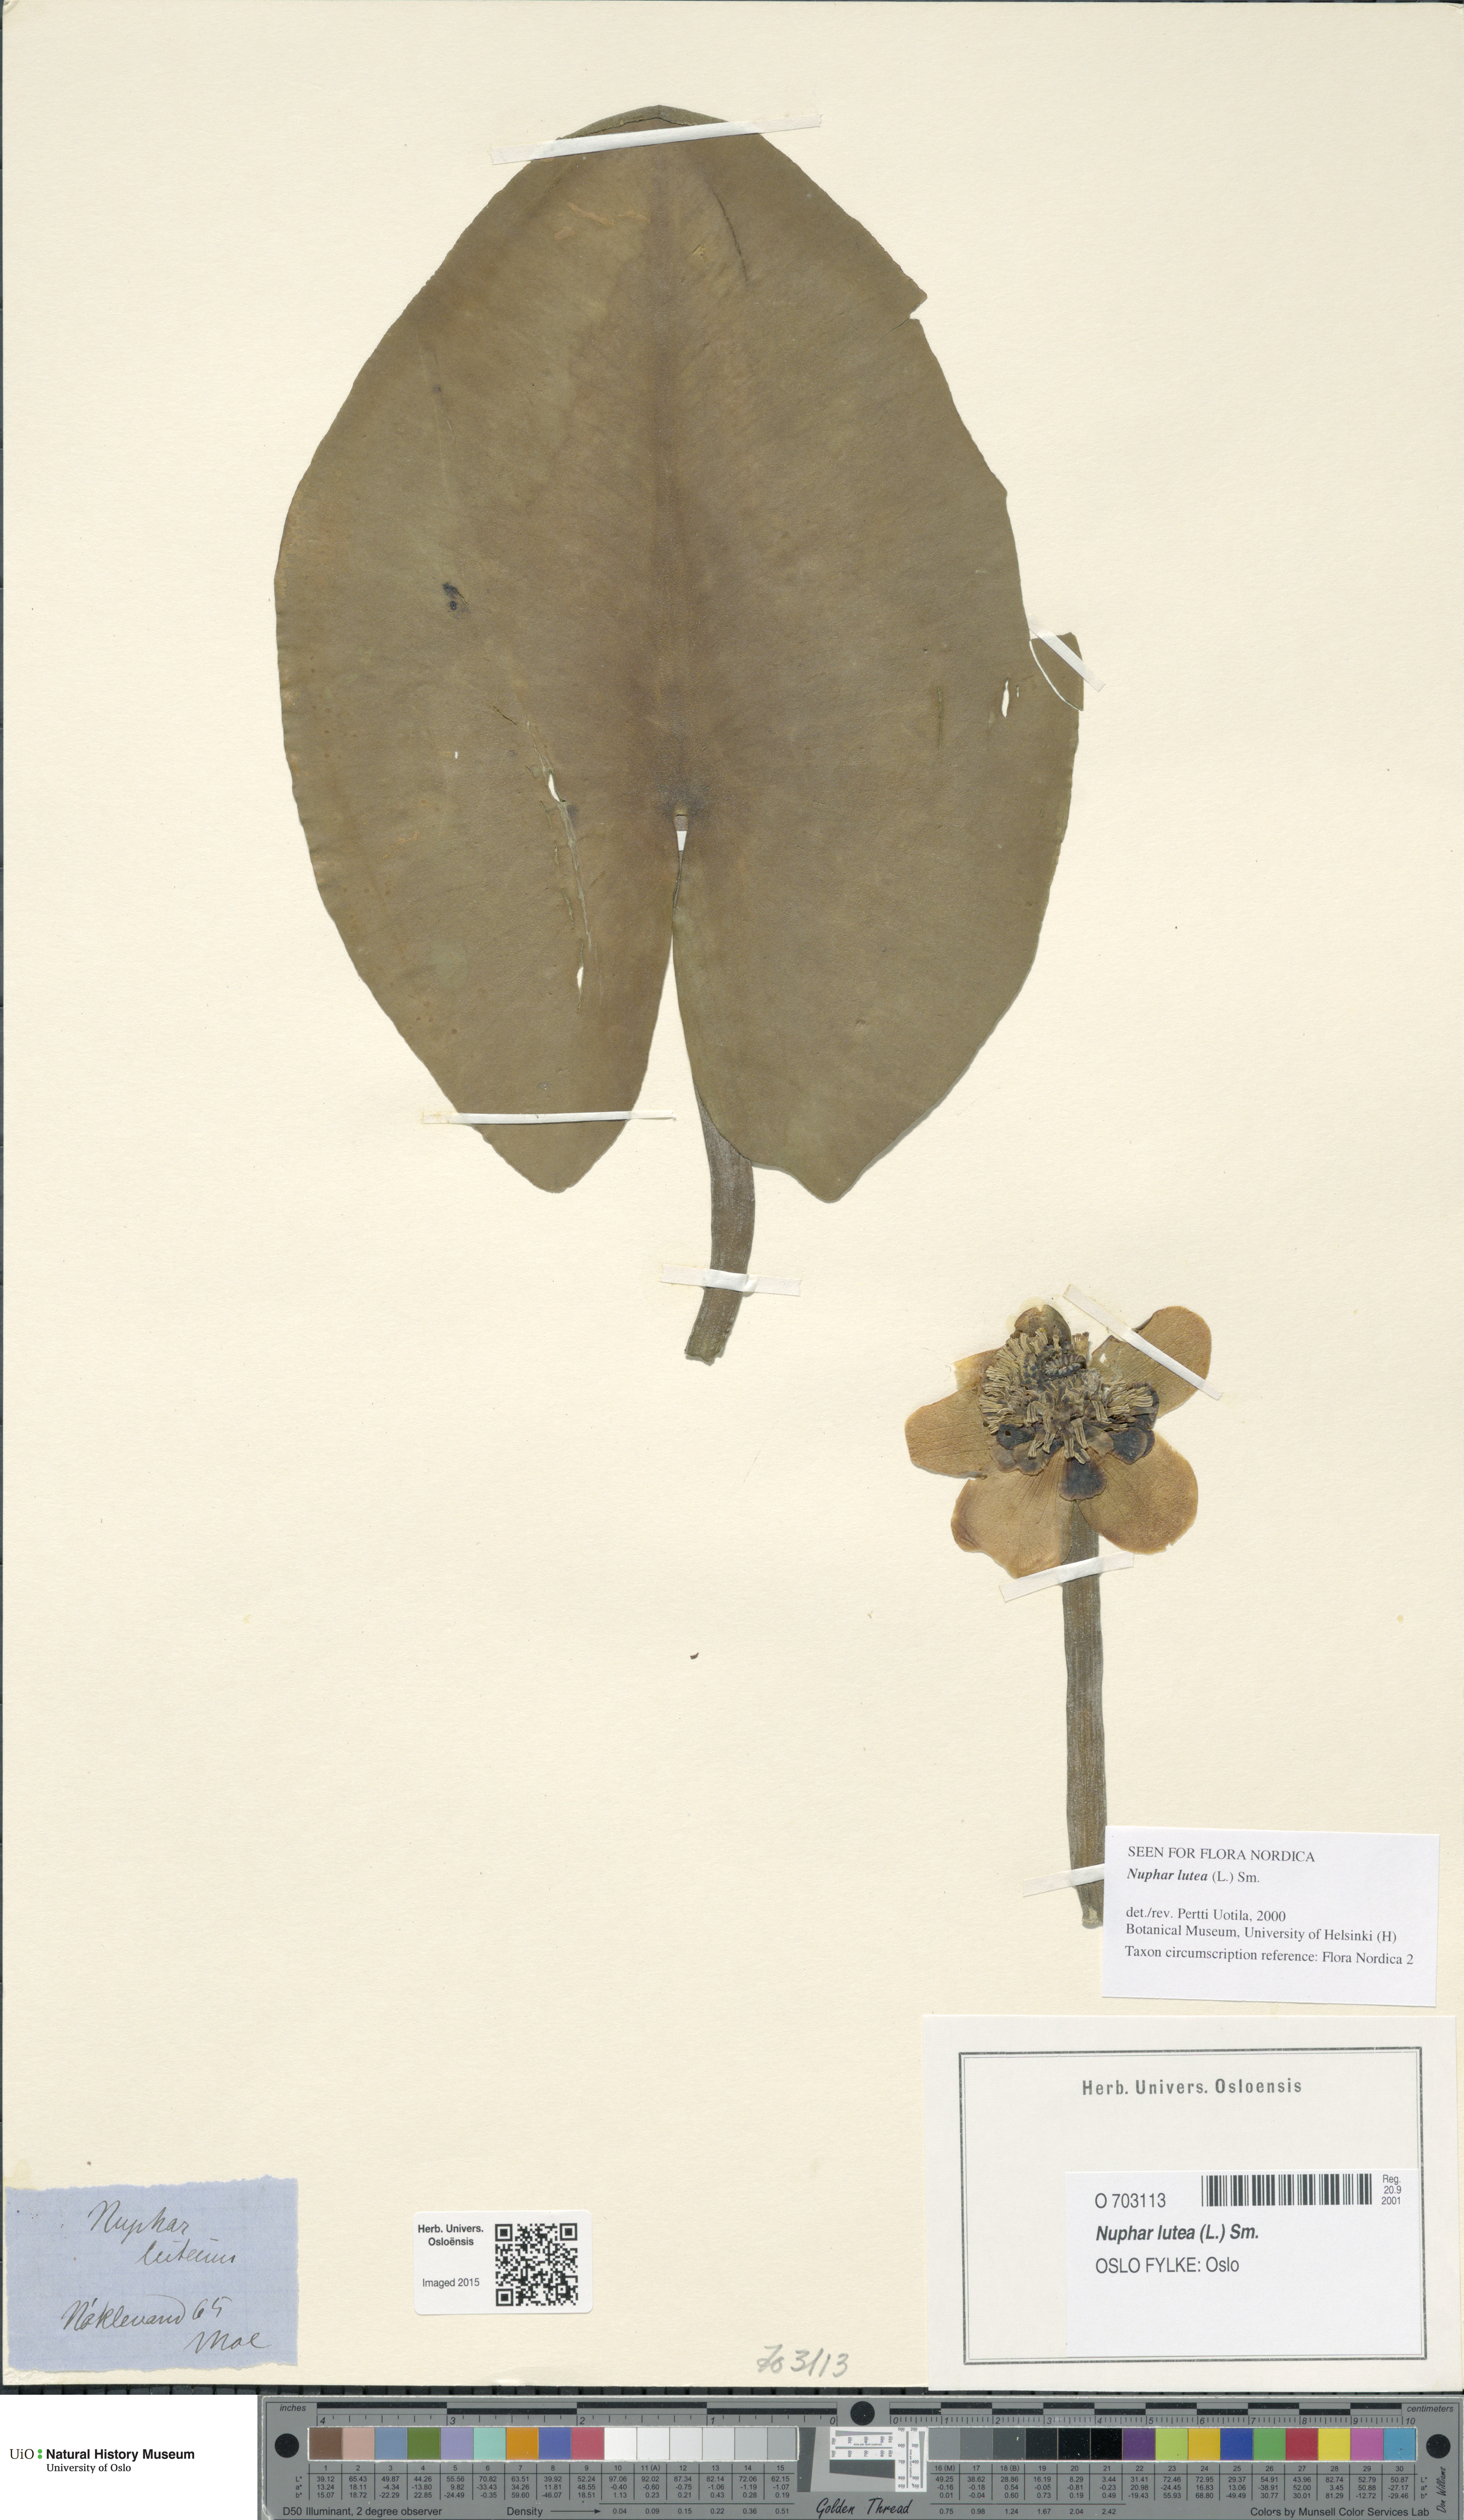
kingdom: Plantae
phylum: Tracheophyta
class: Magnoliopsida
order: Nymphaeales
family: Nymphaeaceae
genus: Nuphar
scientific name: Nuphar lutea
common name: Yellow water-lily
